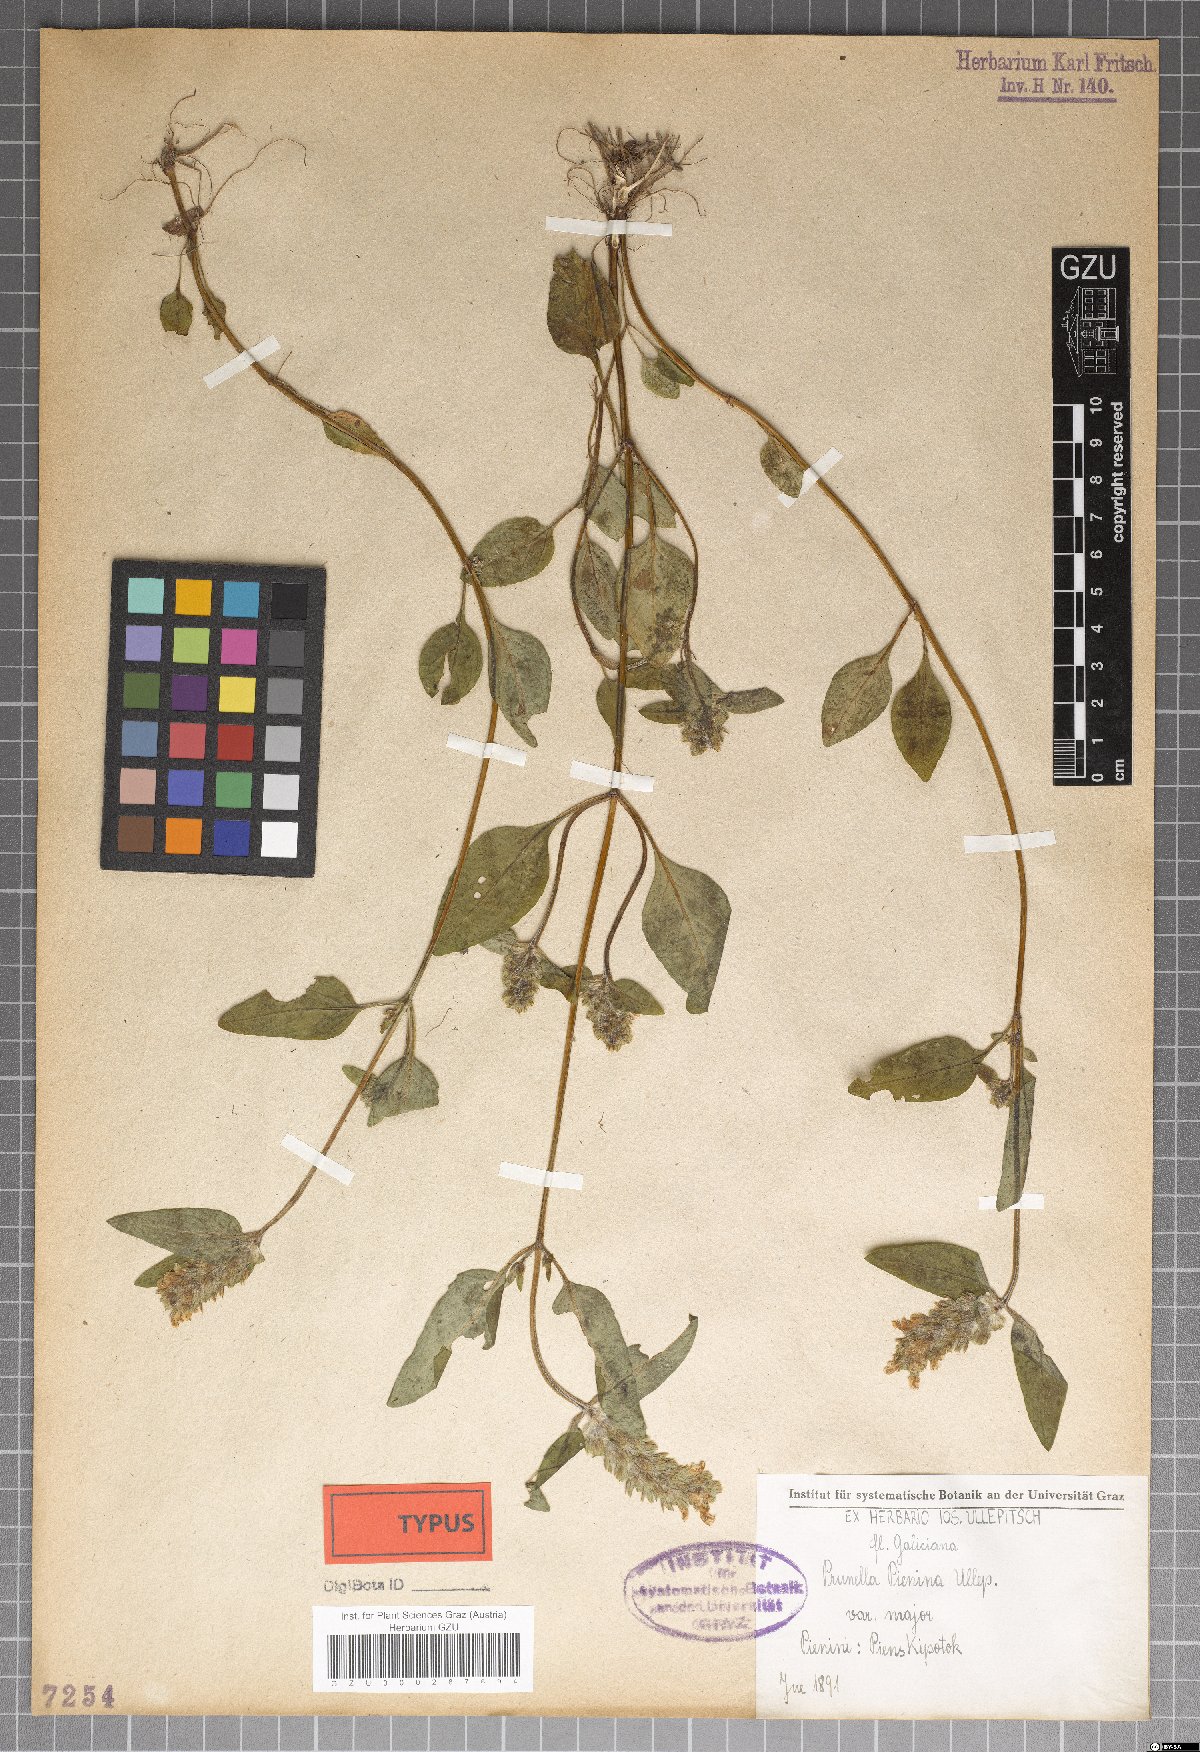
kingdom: Plantae
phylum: Tracheophyta
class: Magnoliopsida
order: Lamiales
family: Lamiaceae
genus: Prunella
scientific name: Prunella pienina
